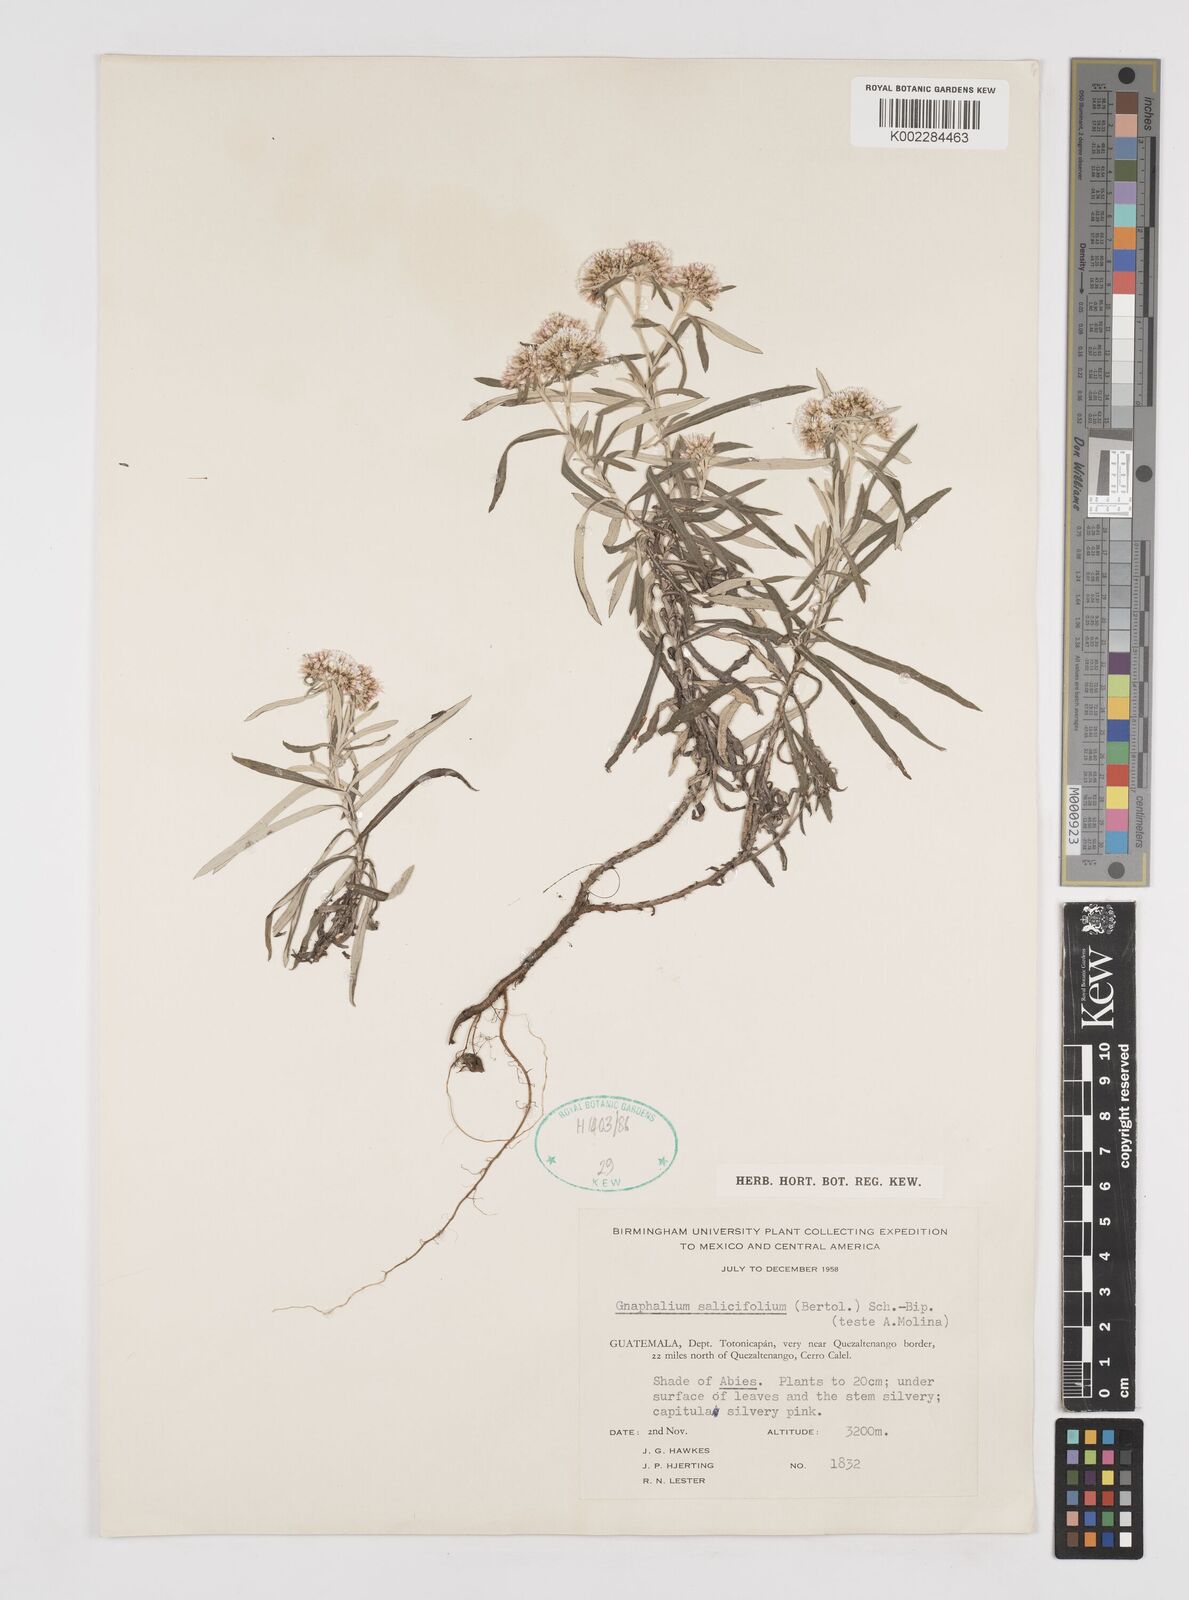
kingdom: Plantae
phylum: Tracheophyta
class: Magnoliopsida
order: Asterales
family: Asteraceae
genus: Gnaphaliothamnus
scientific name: Gnaphaliothamnus salicifolius
